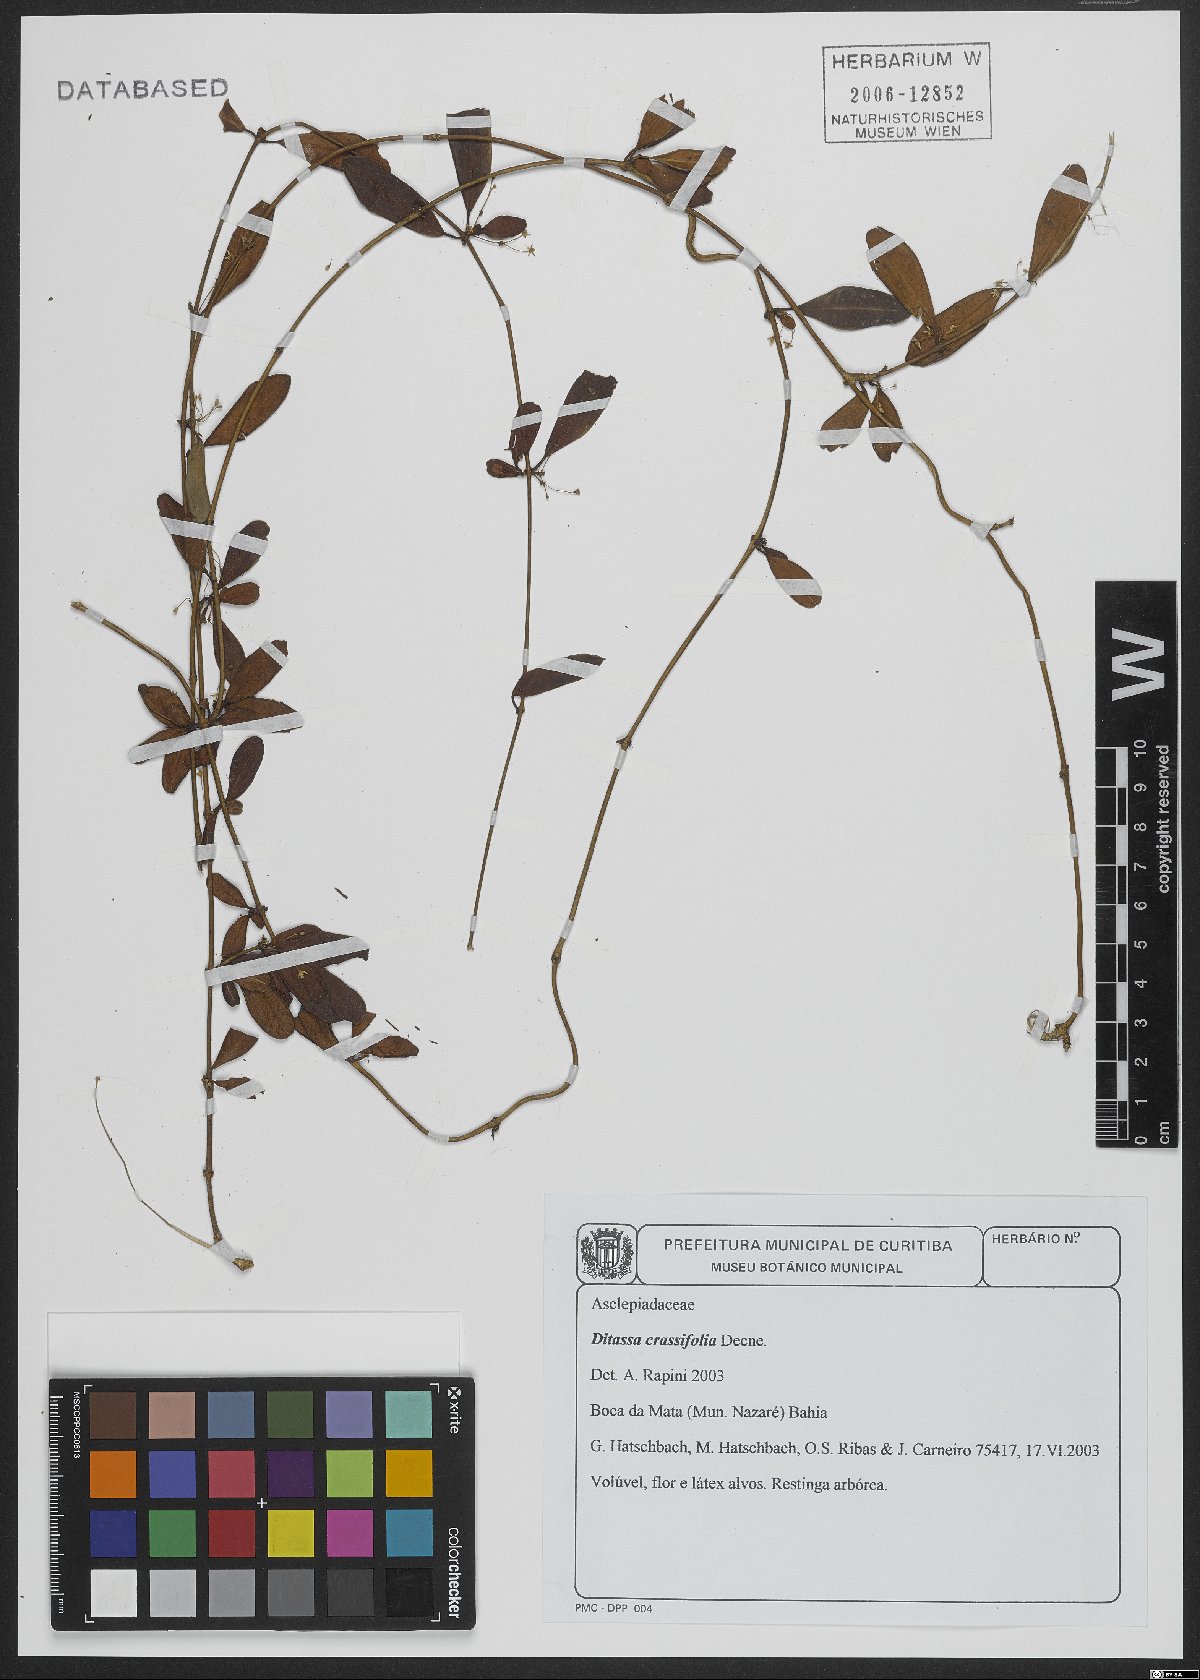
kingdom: Plantae
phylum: Tracheophyta
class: Magnoliopsida
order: Gentianales
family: Apocynaceae
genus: Ditassa
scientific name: Ditassa crassifolia
